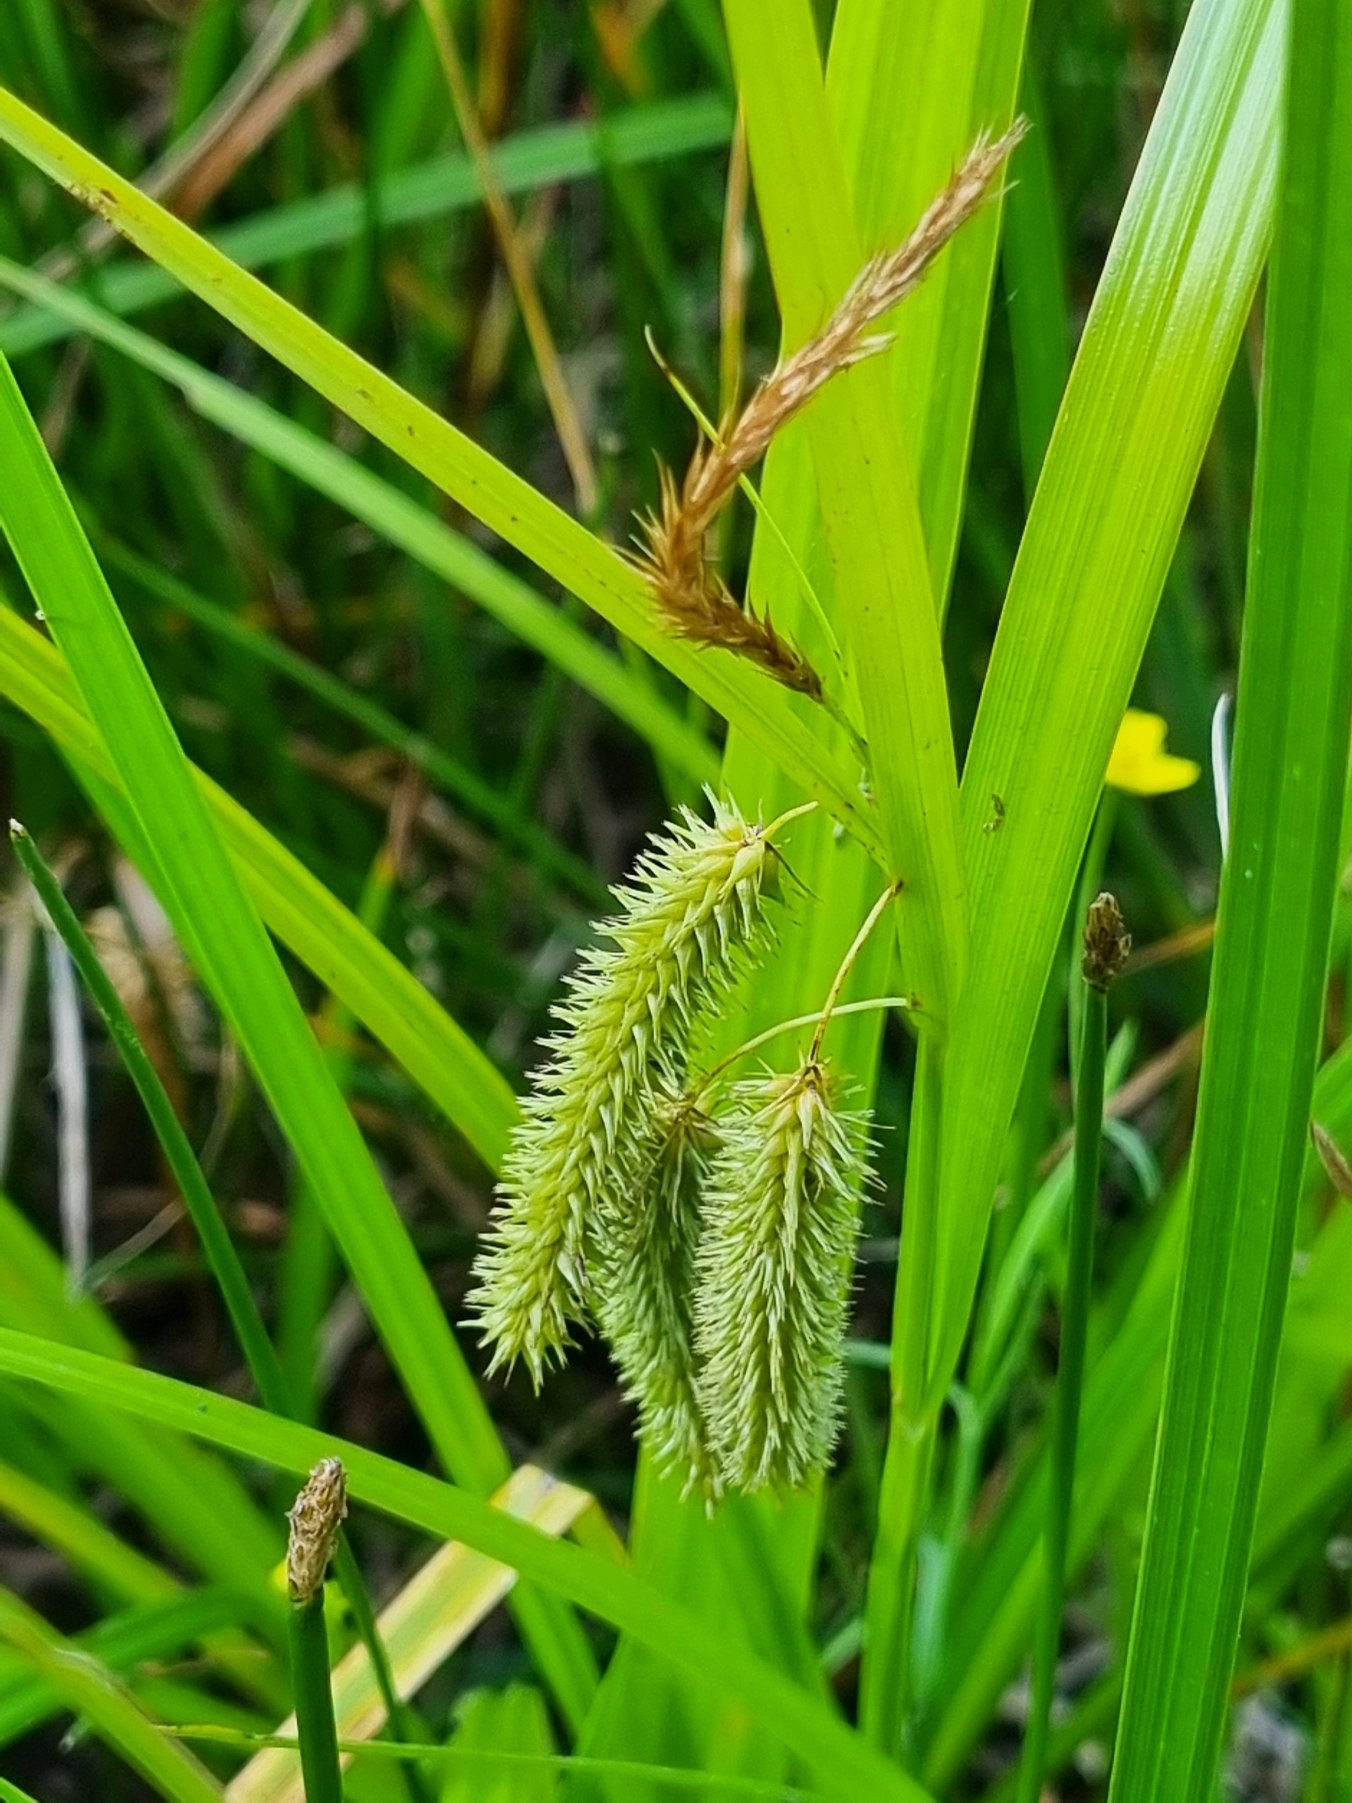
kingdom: Plantae
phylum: Tracheophyta
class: Liliopsida
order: Poales
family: Cyperaceae
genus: Carex
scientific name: Carex pseudocyperus
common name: Knippe-star
